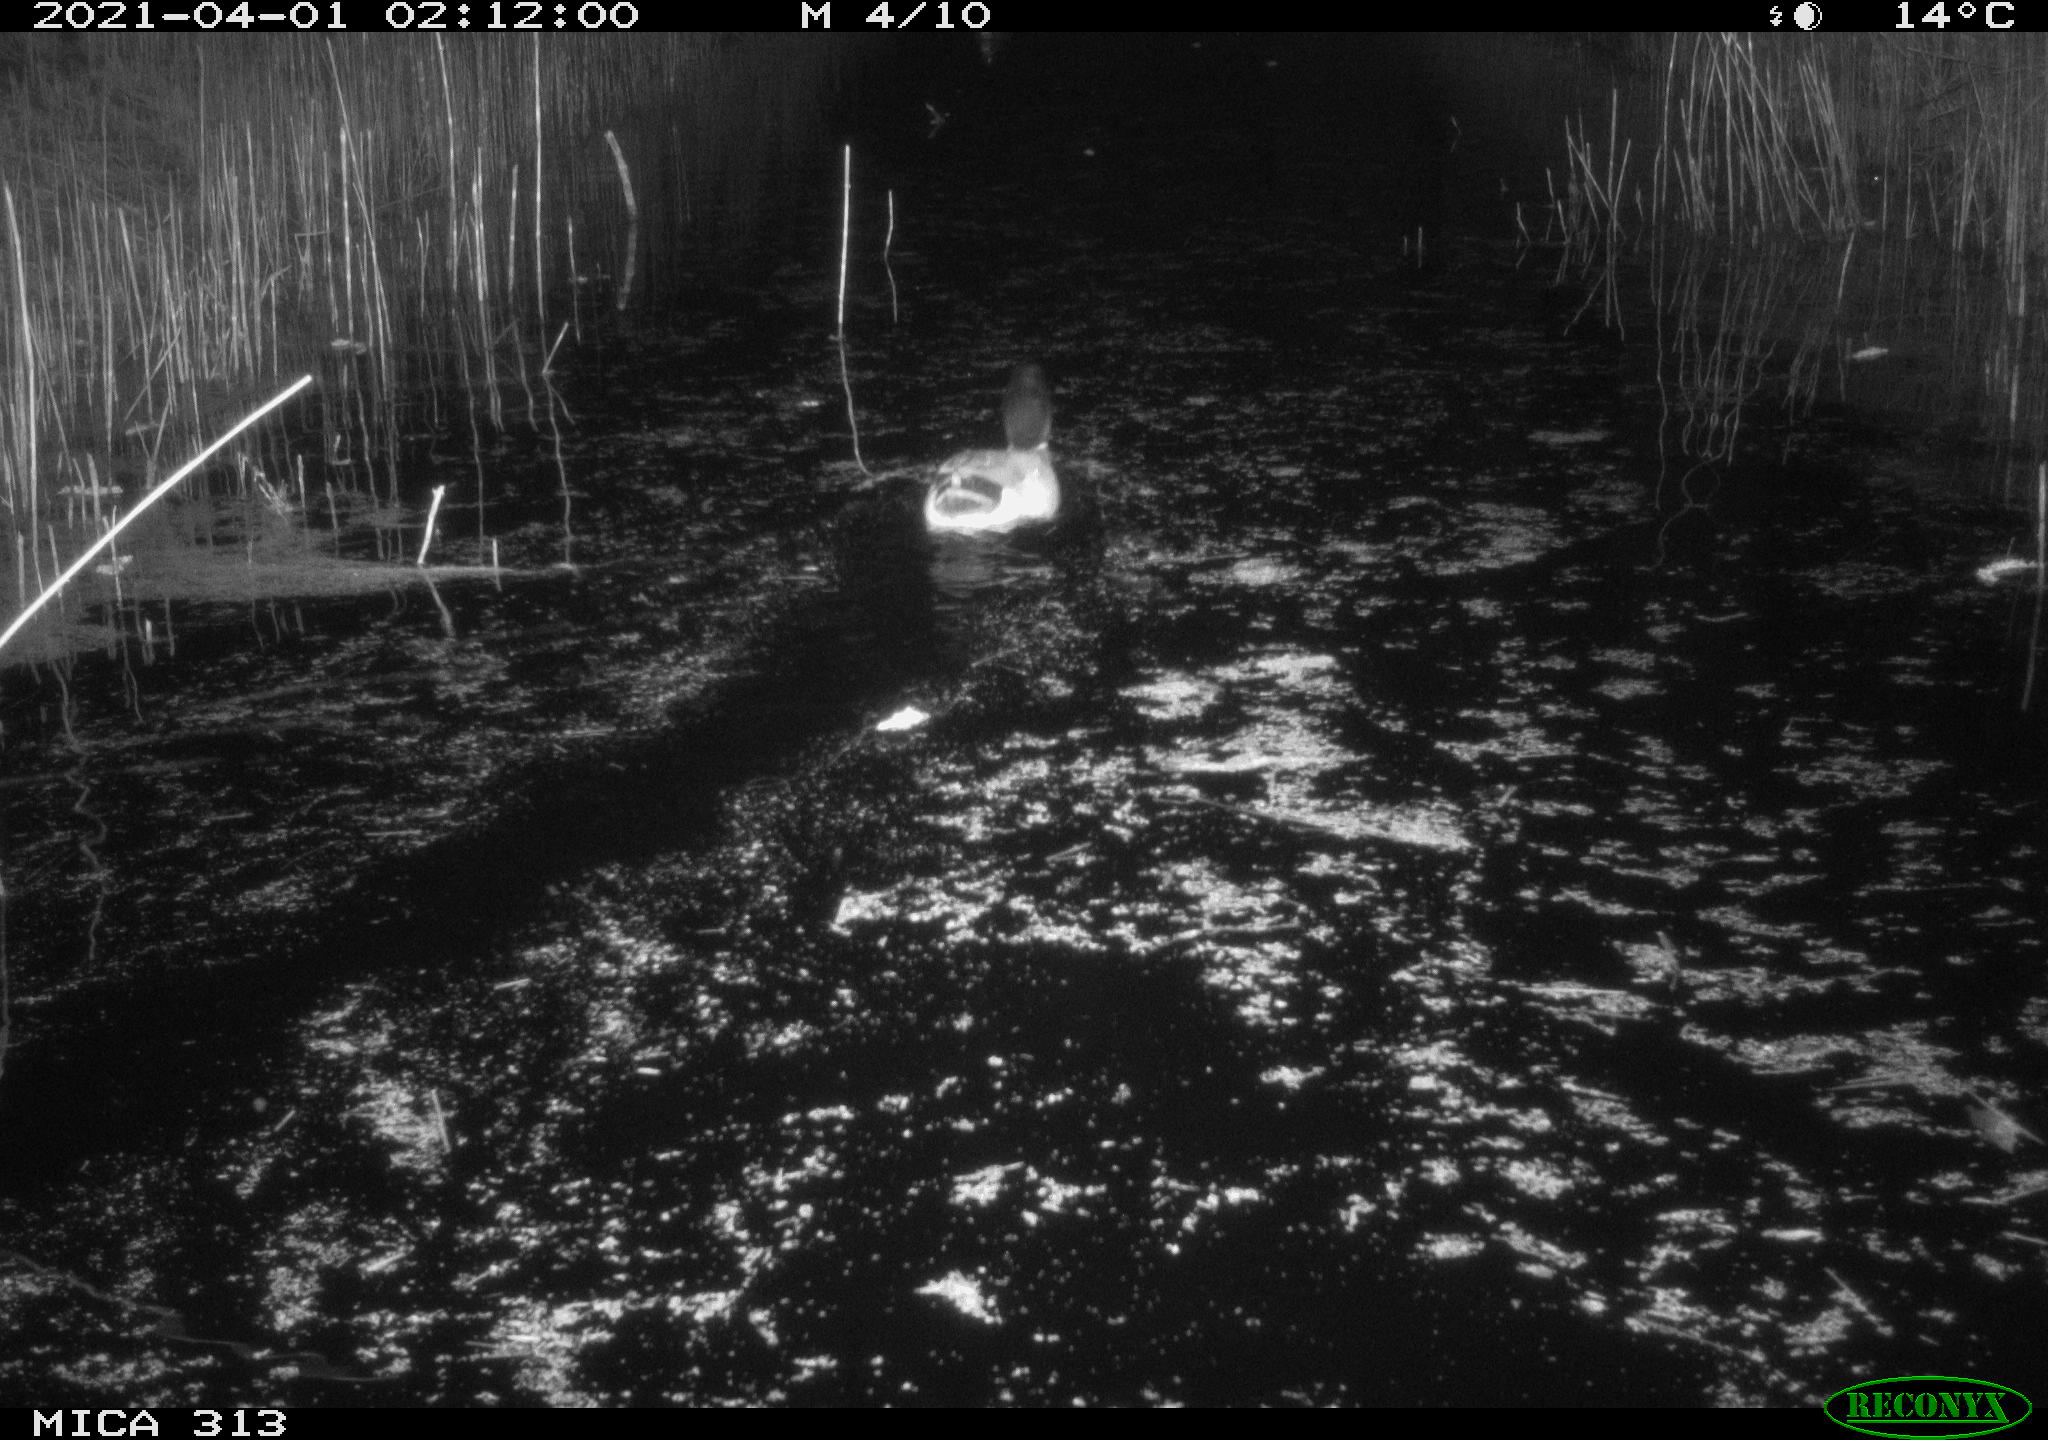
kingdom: Animalia
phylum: Chordata
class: Aves
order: Anseriformes
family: Anatidae
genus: Anas
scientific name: Anas platyrhynchos
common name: Mallard
